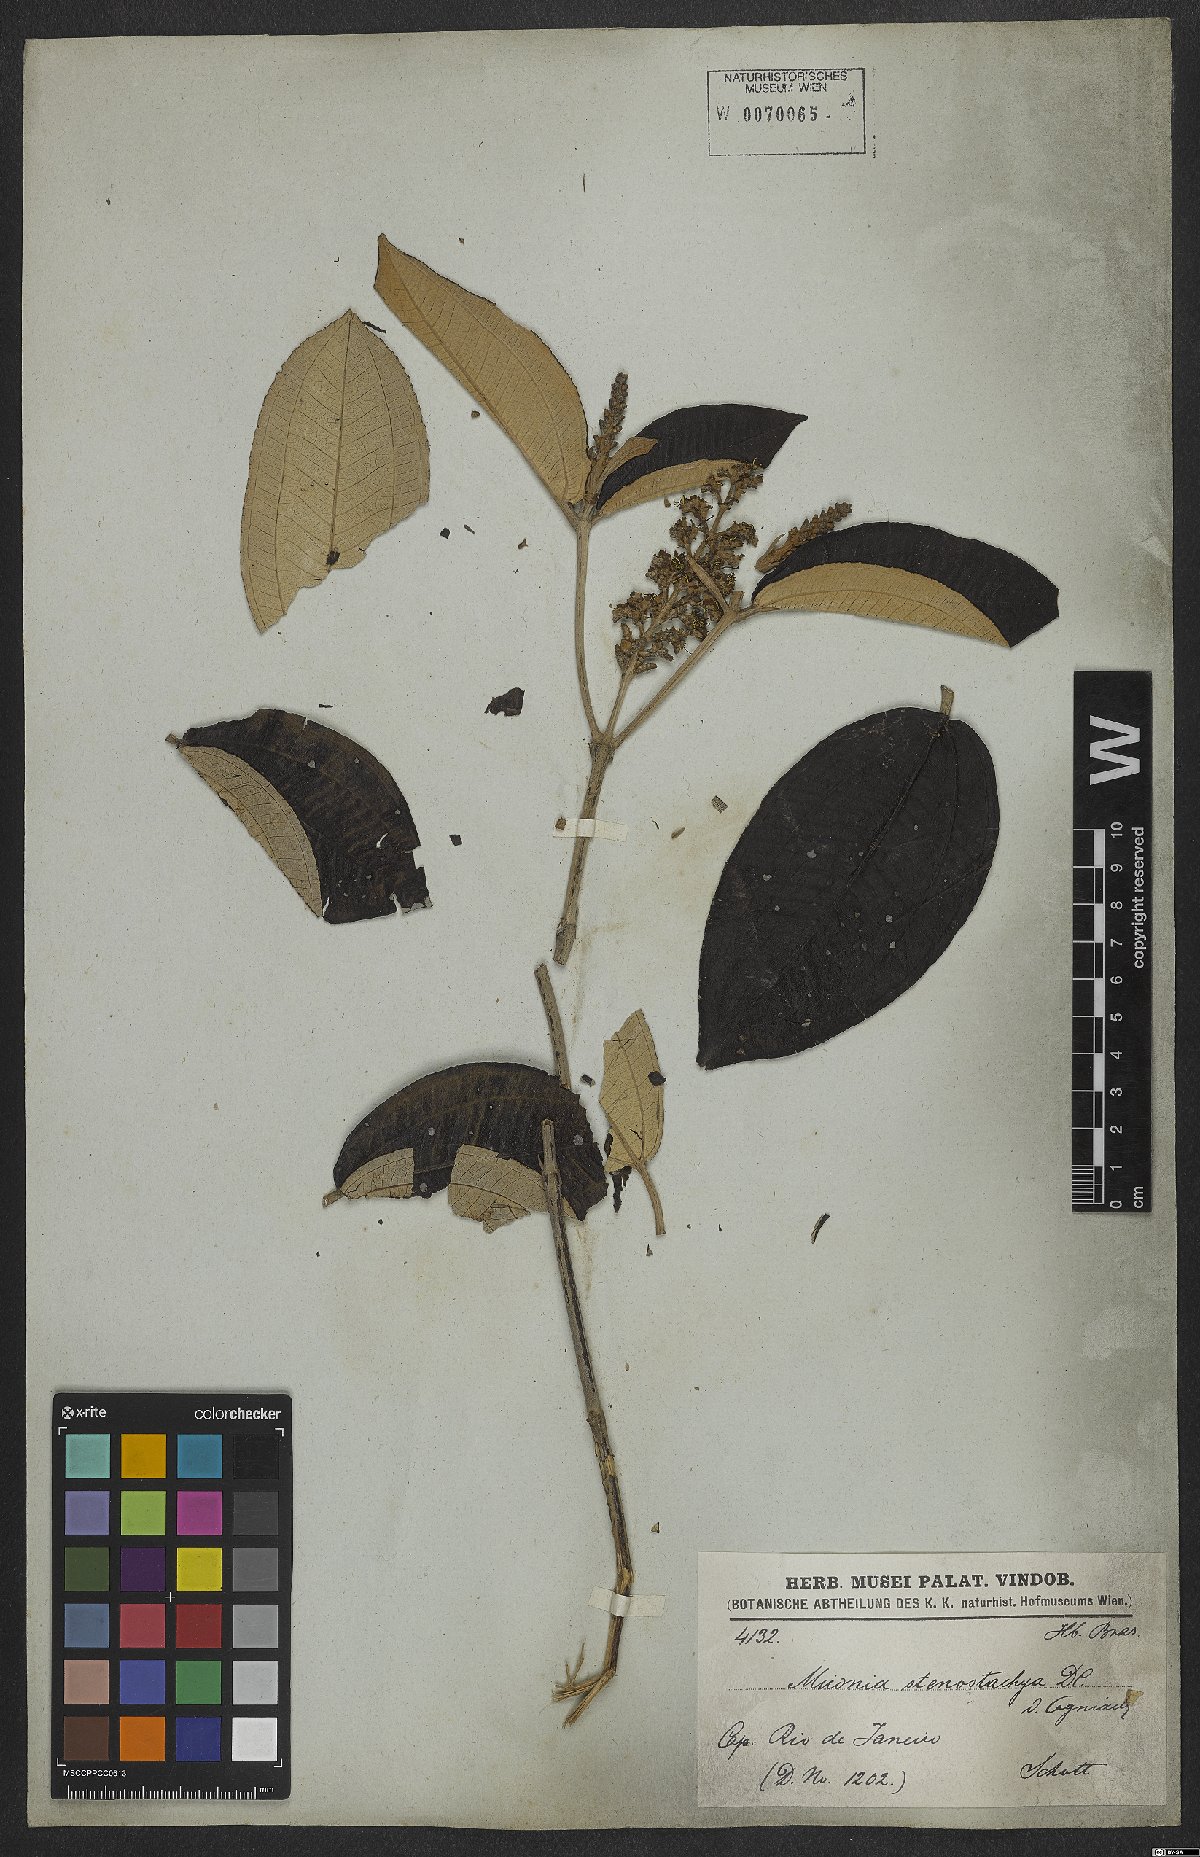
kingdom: Plantae
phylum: Tracheophyta
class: Magnoliopsida
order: Myrtales
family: Melastomataceae
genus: Miconia
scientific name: Miconia stenostachya
